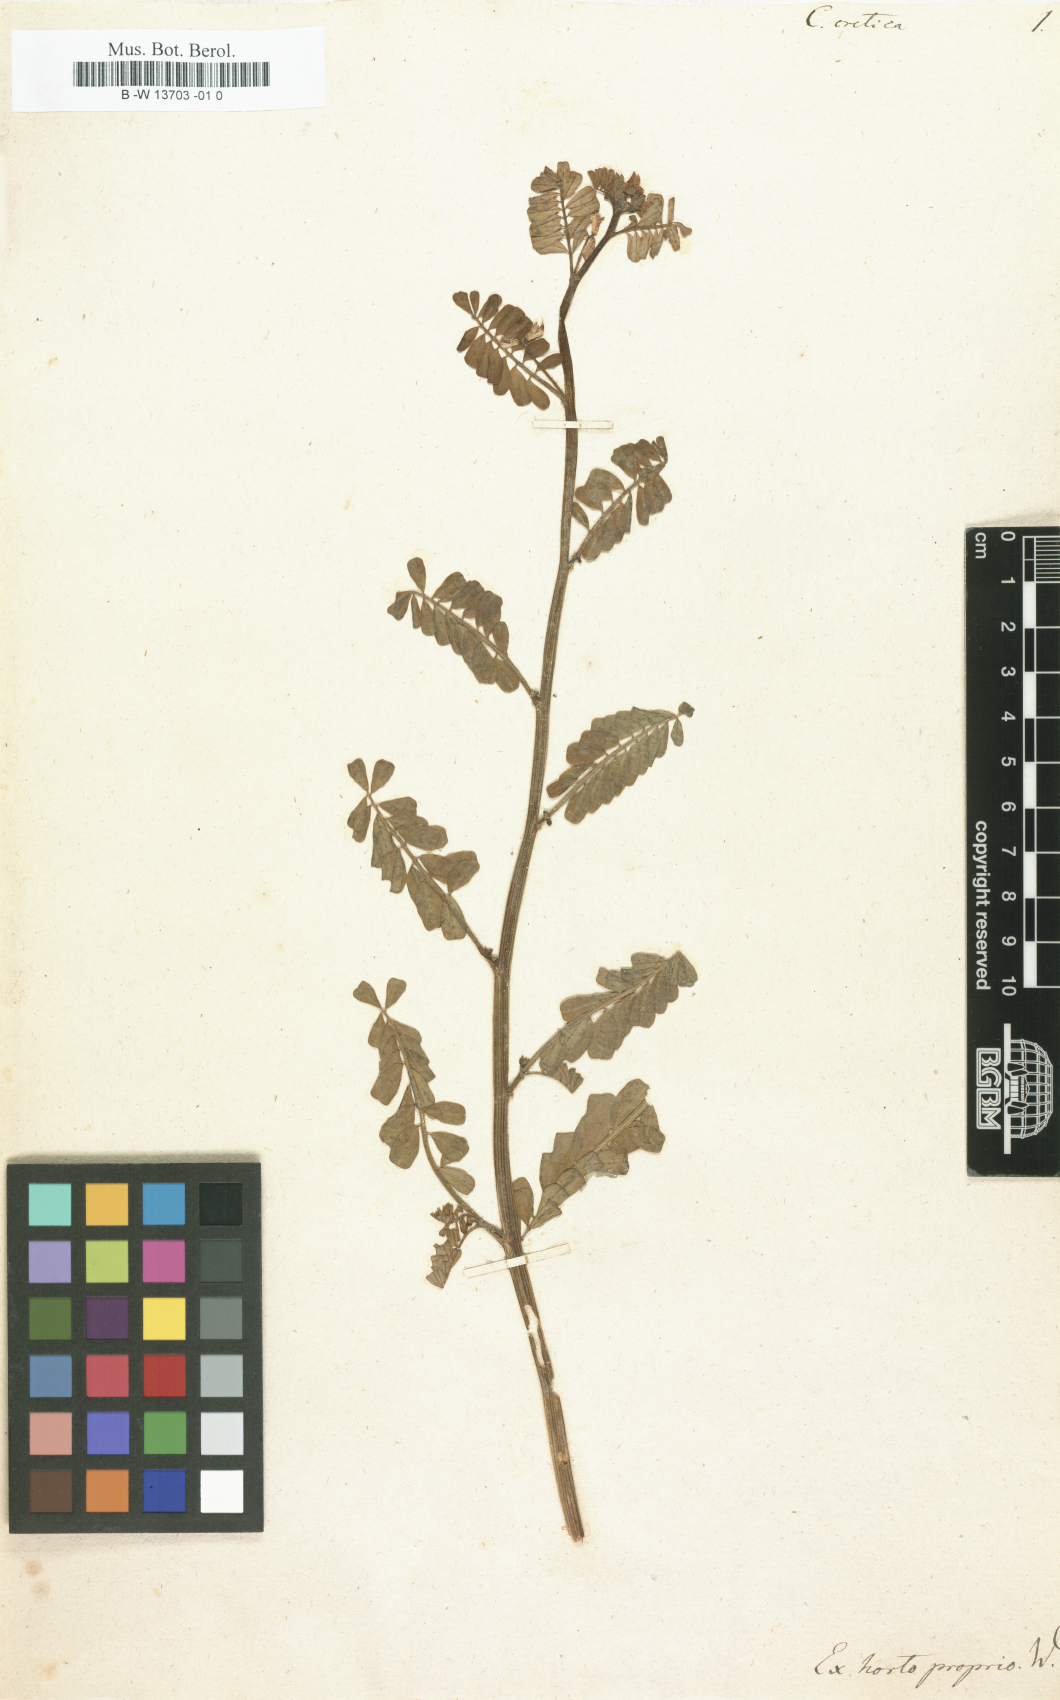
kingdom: Plantae
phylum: Tracheophyta
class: Magnoliopsida
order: Fabales
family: Fabaceae
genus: Coronilla
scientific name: Coronilla cretica
